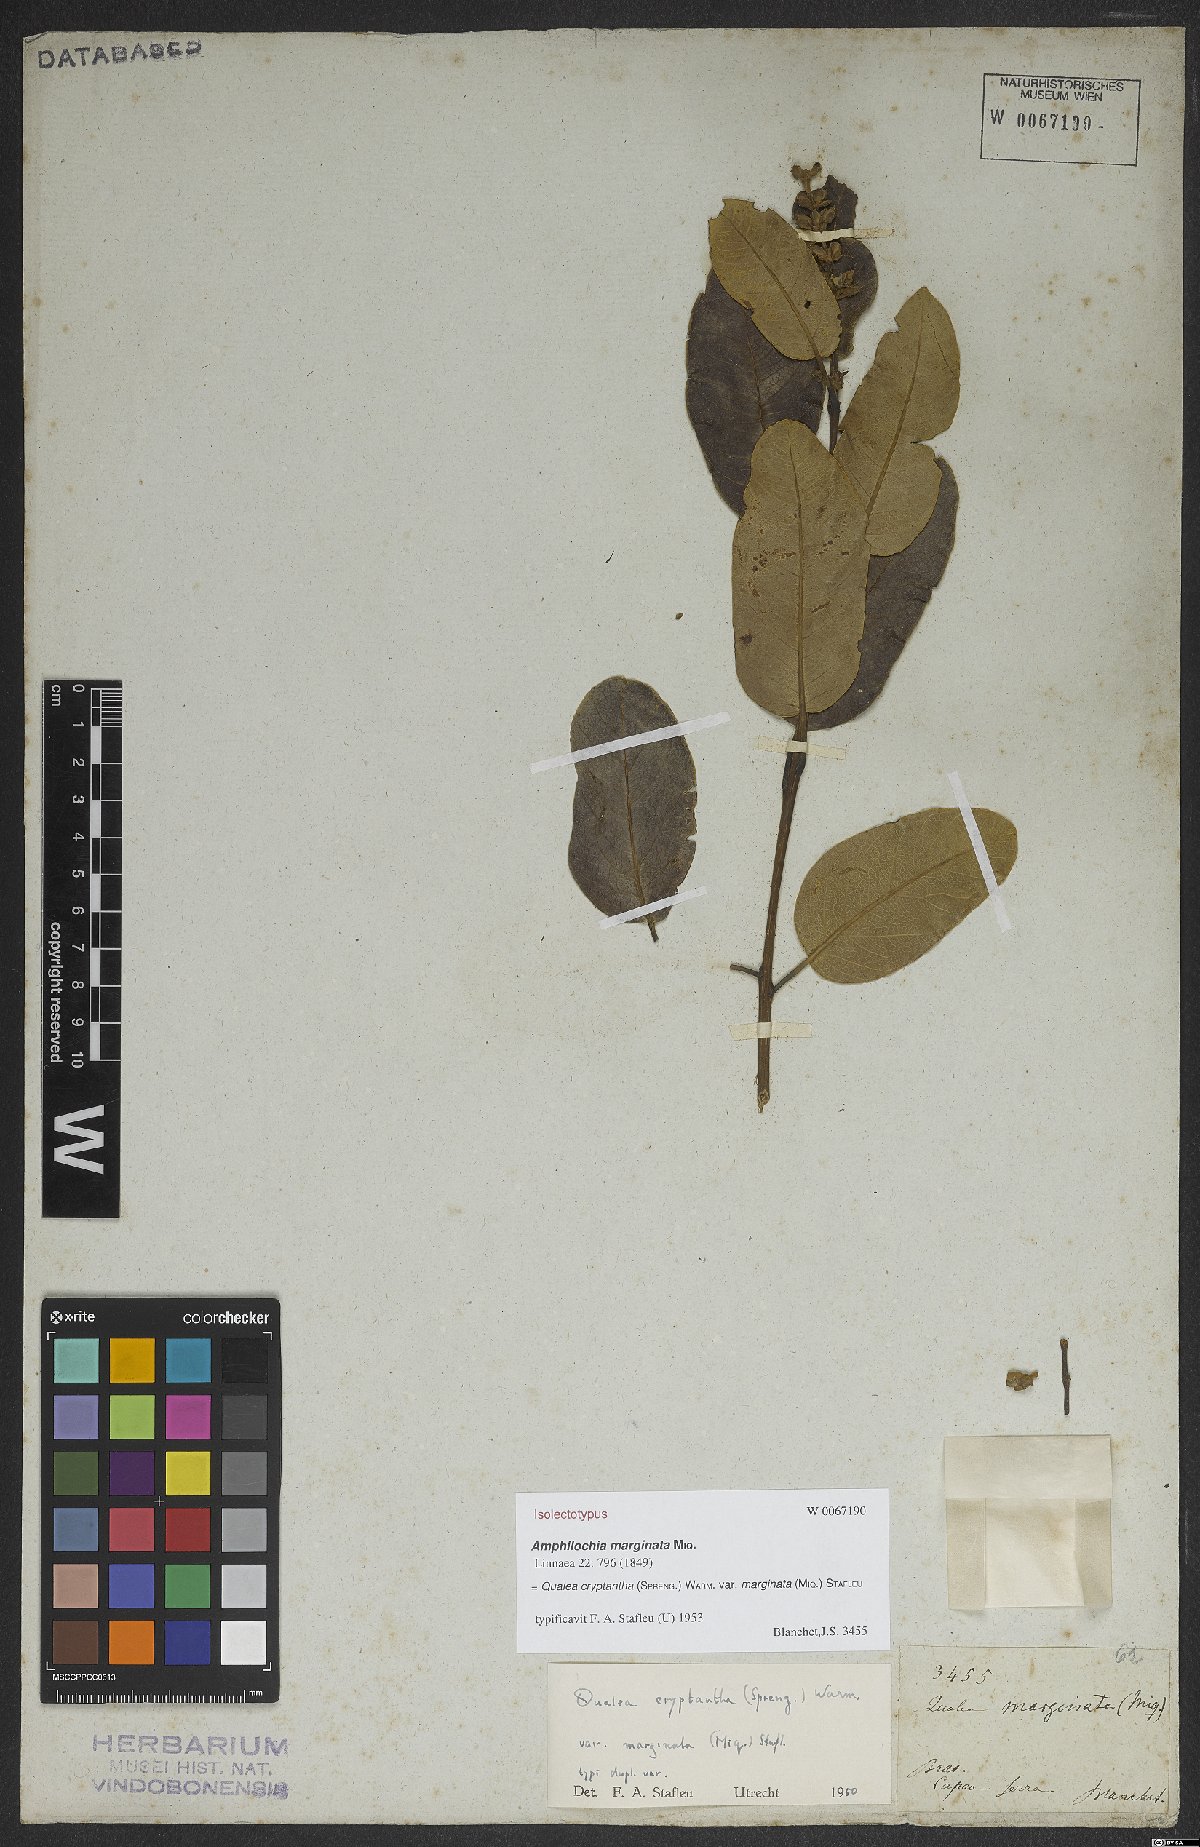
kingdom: Plantae
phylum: Tracheophyta
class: Magnoliopsida
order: Myrtales
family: Vochysiaceae
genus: Qualea
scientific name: Qualea cryptantha
